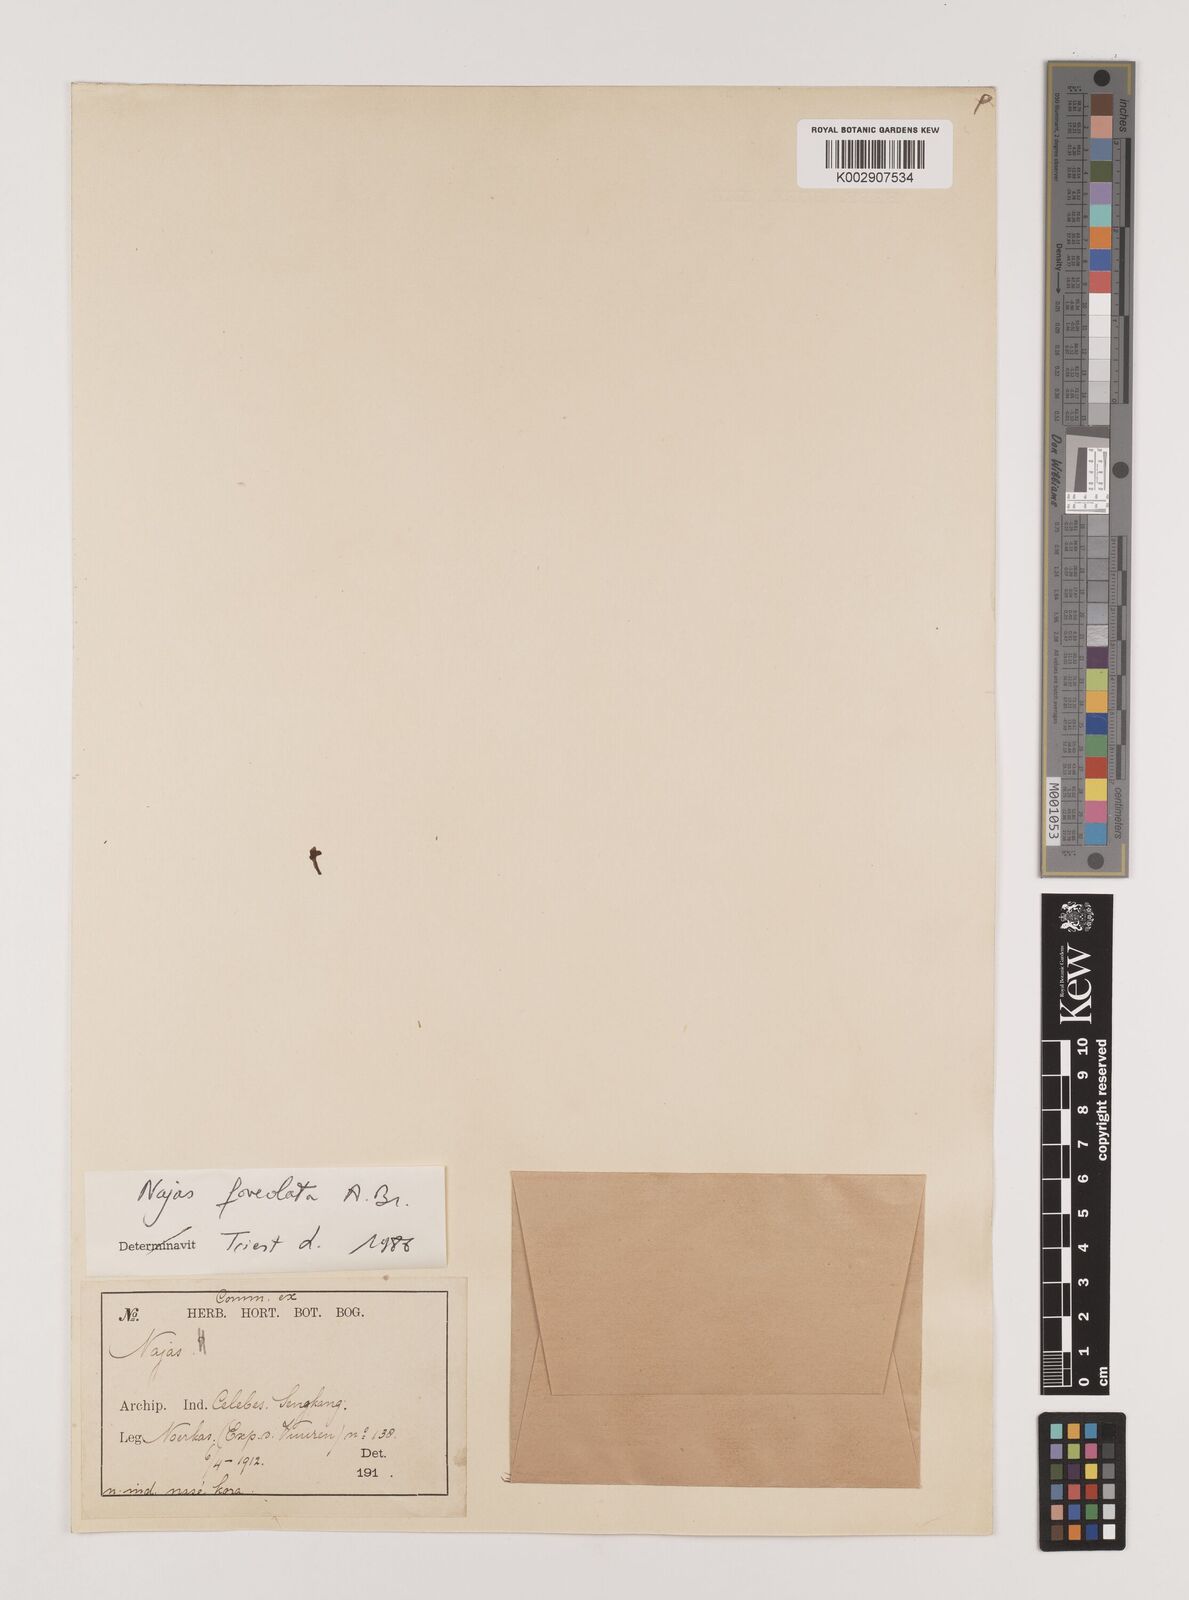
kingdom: Plantae
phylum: Tracheophyta
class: Liliopsida
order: Alismatales
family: Hydrocharitaceae
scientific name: Hydrocharitaceae
